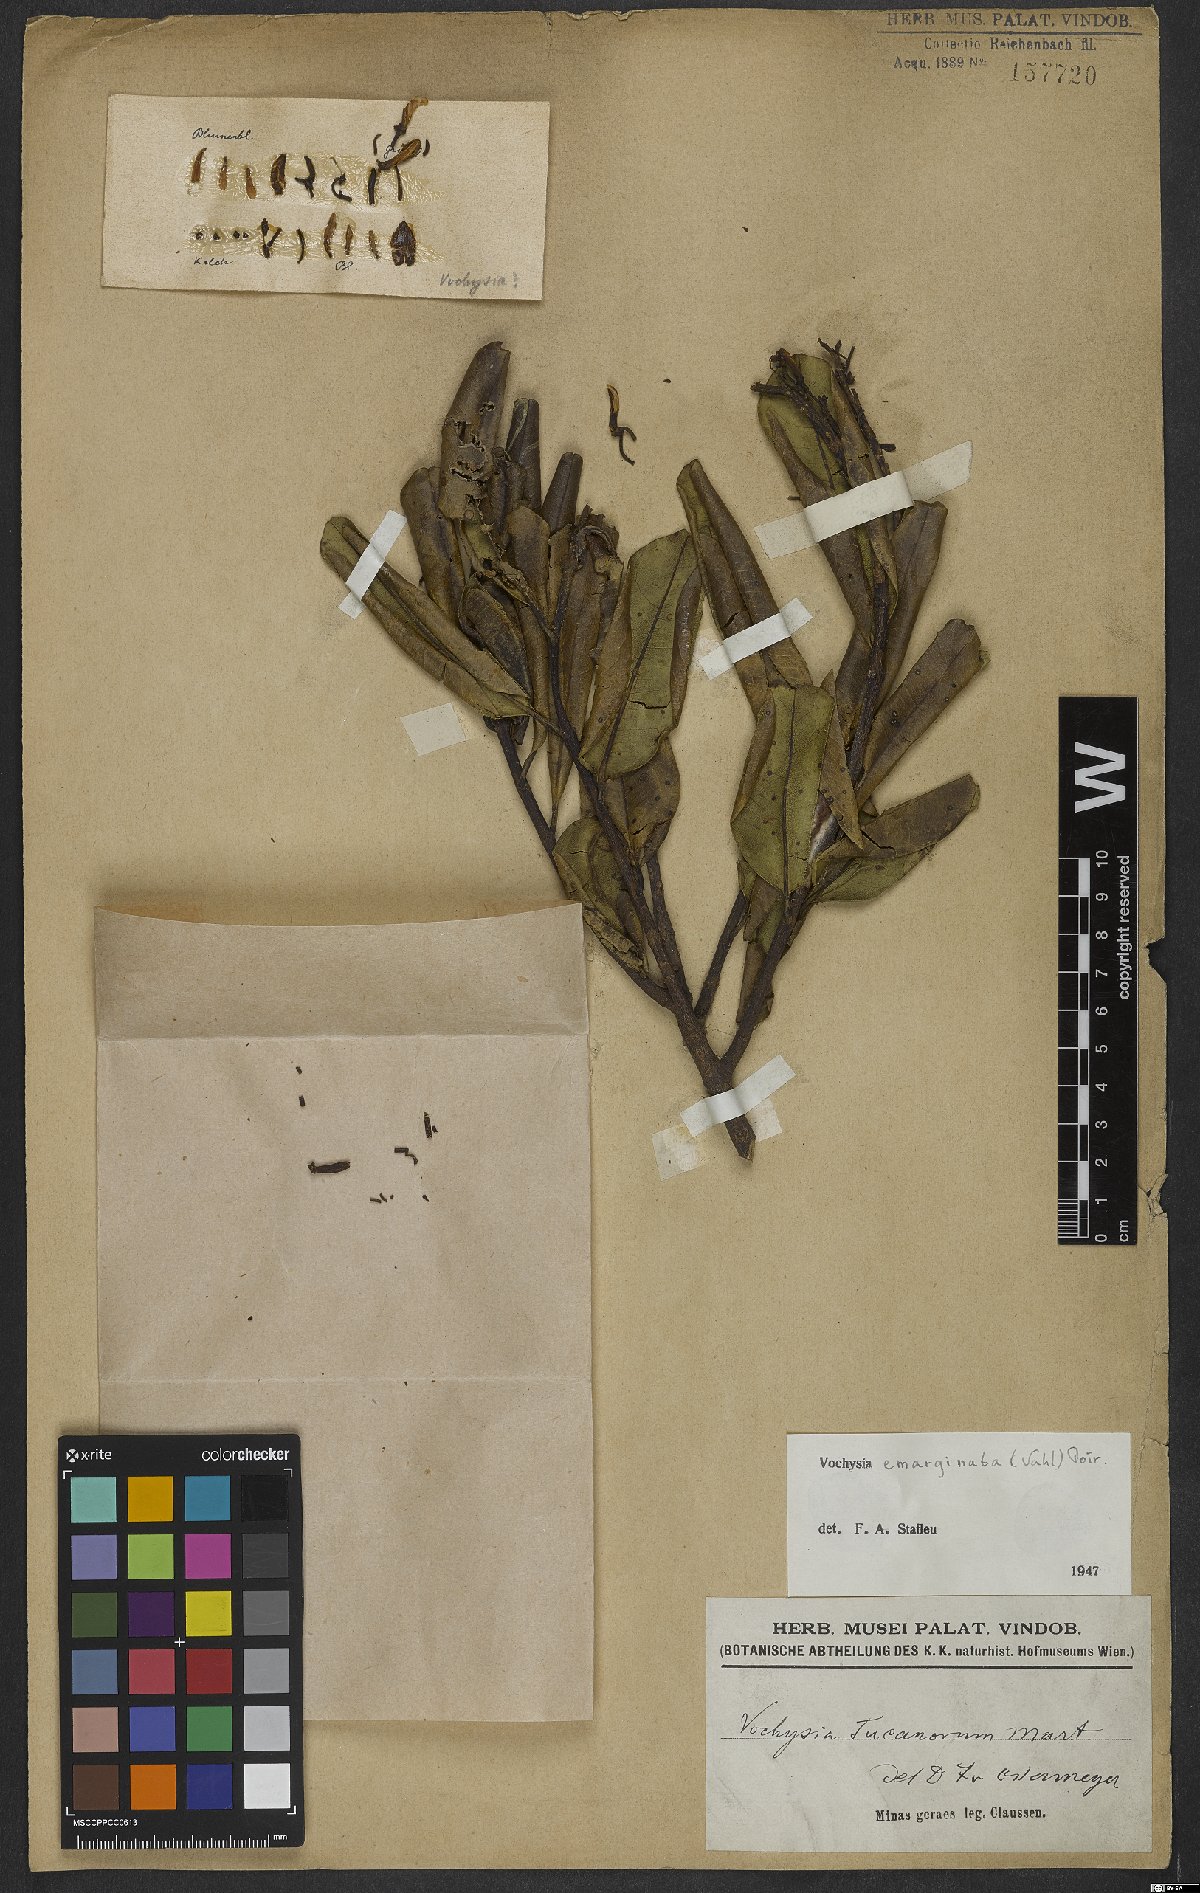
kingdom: Plantae
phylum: Tracheophyta
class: Magnoliopsida
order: Myrtales
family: Vochysiaceae
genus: Vochysia
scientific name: Vochysia emarginata
